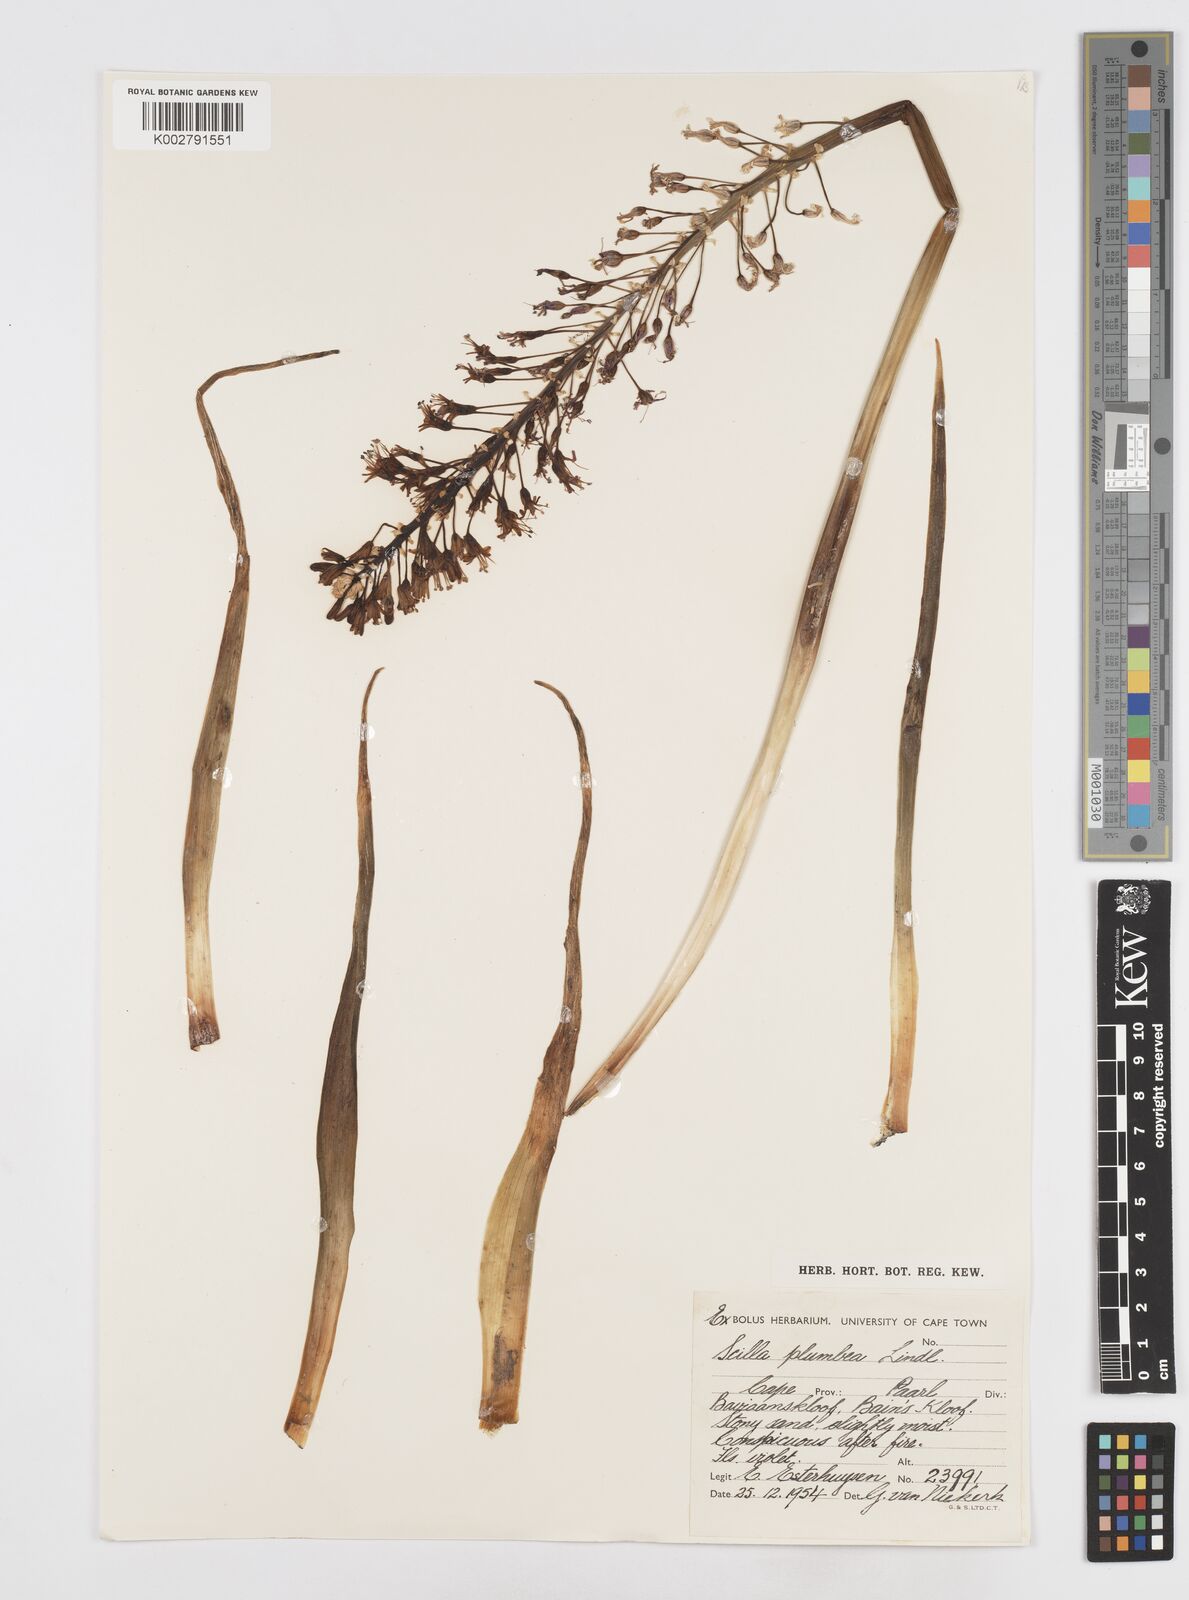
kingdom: Plantae
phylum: Tracheophyta
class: Liliopsida
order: Asparagales
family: Asparagaceae
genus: Merwilla
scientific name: Merwilla plumbea
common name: Blue-squill
